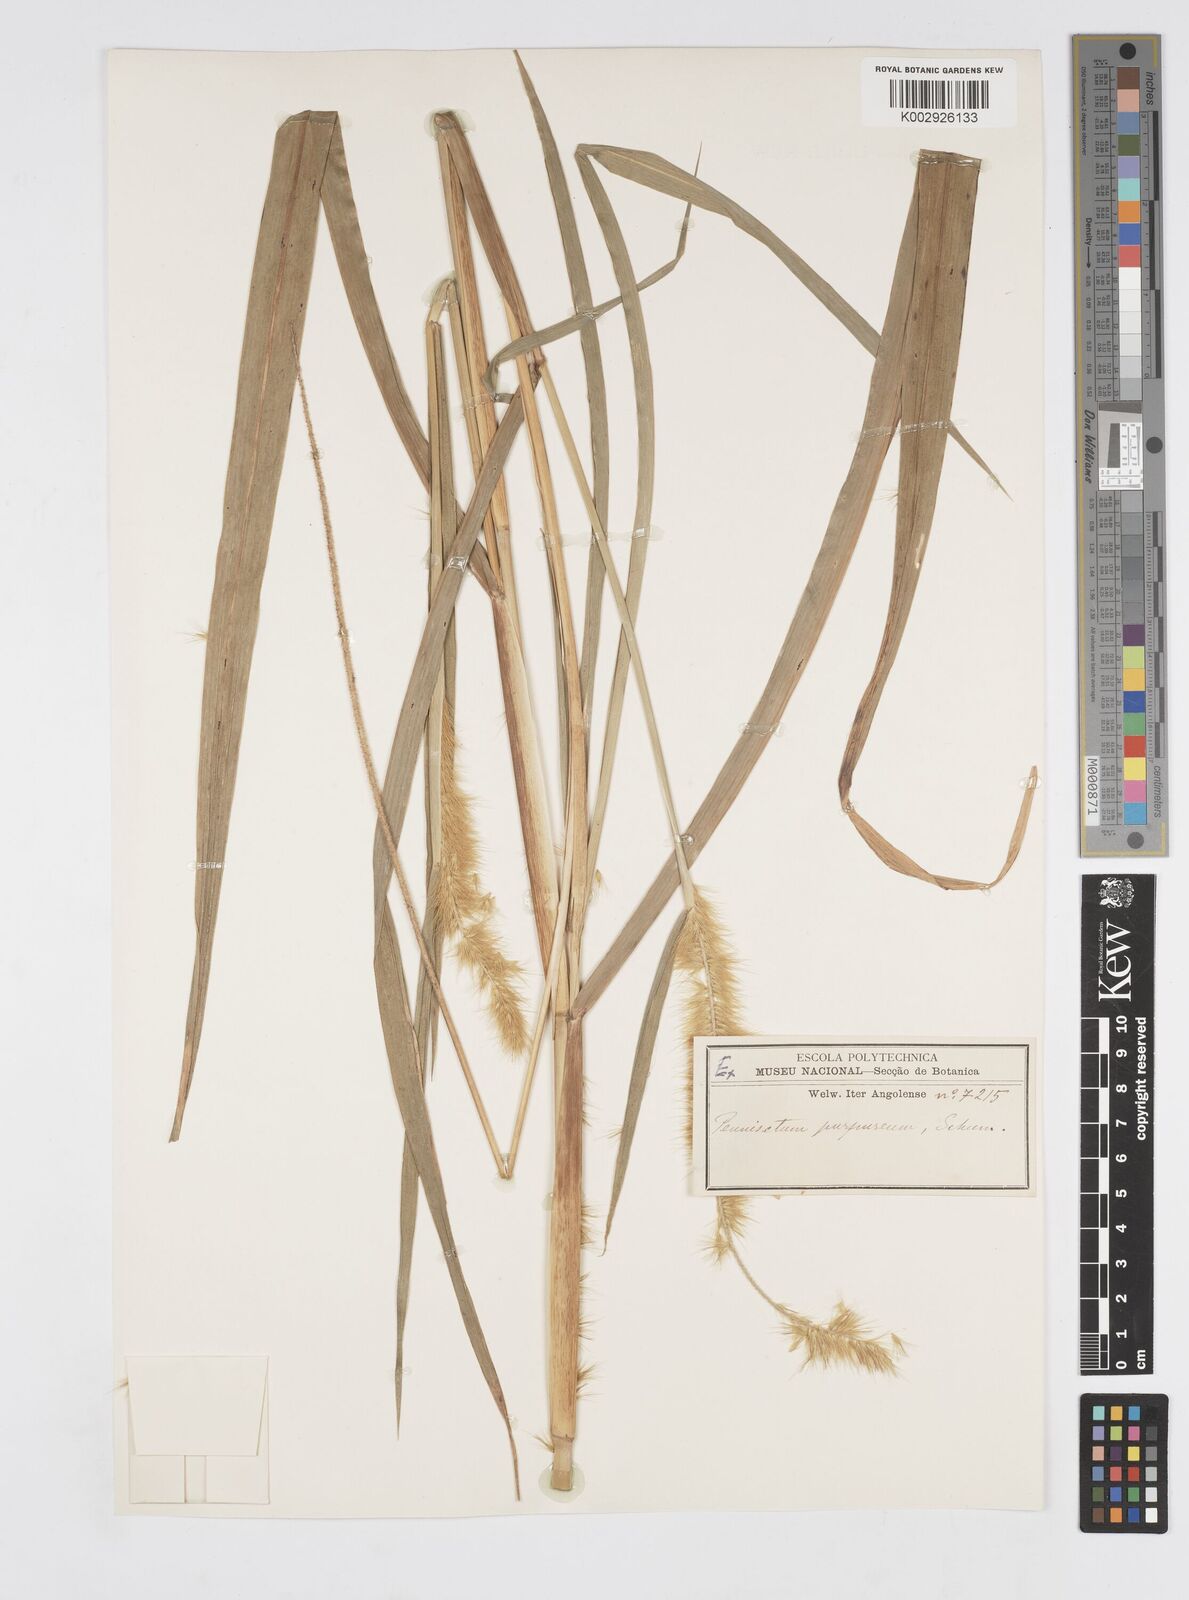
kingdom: Plantae
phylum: Tracheophyta
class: Liliopsida
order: Poales
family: Poaceae
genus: Cenchrus
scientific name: Cenchrus purpureus
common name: Elephant grass
